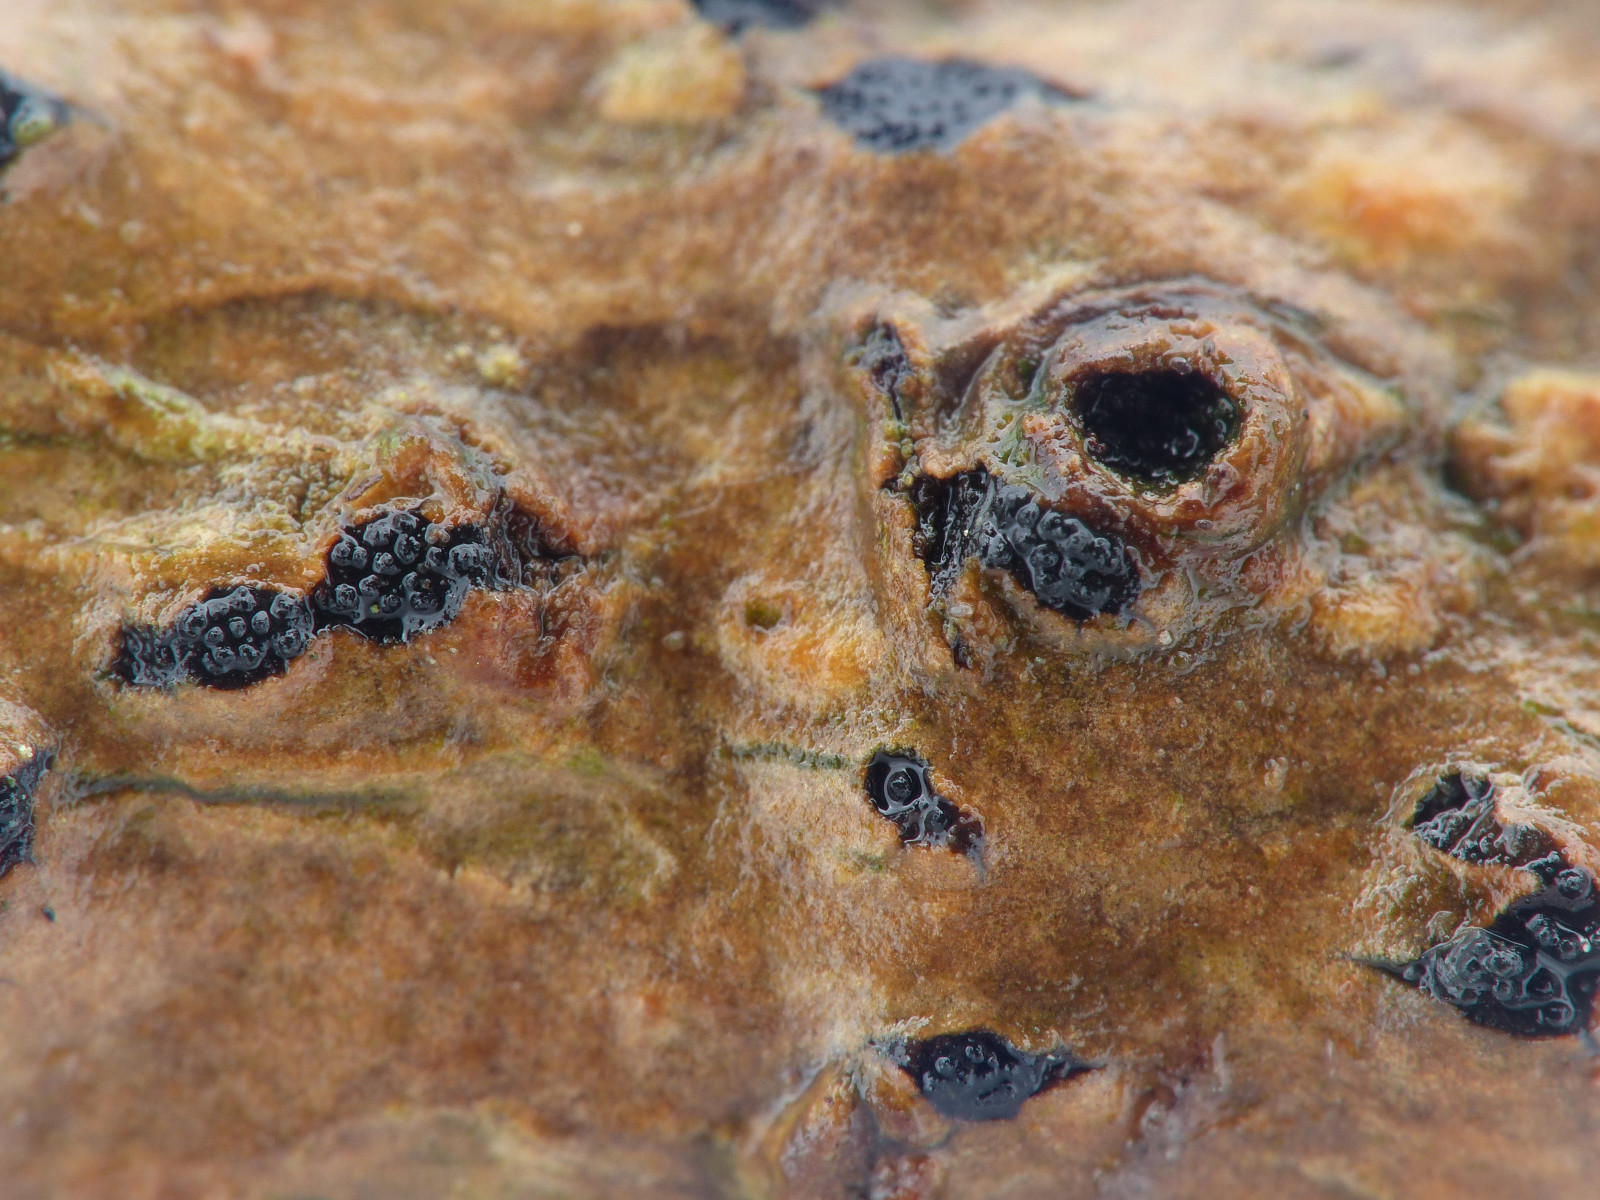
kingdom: Fungi
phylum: Ascomycota
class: Sordariomycetes
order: Diaporthales
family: Diaporthaceae
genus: Diaporthe
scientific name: Diaporthe detrusa
